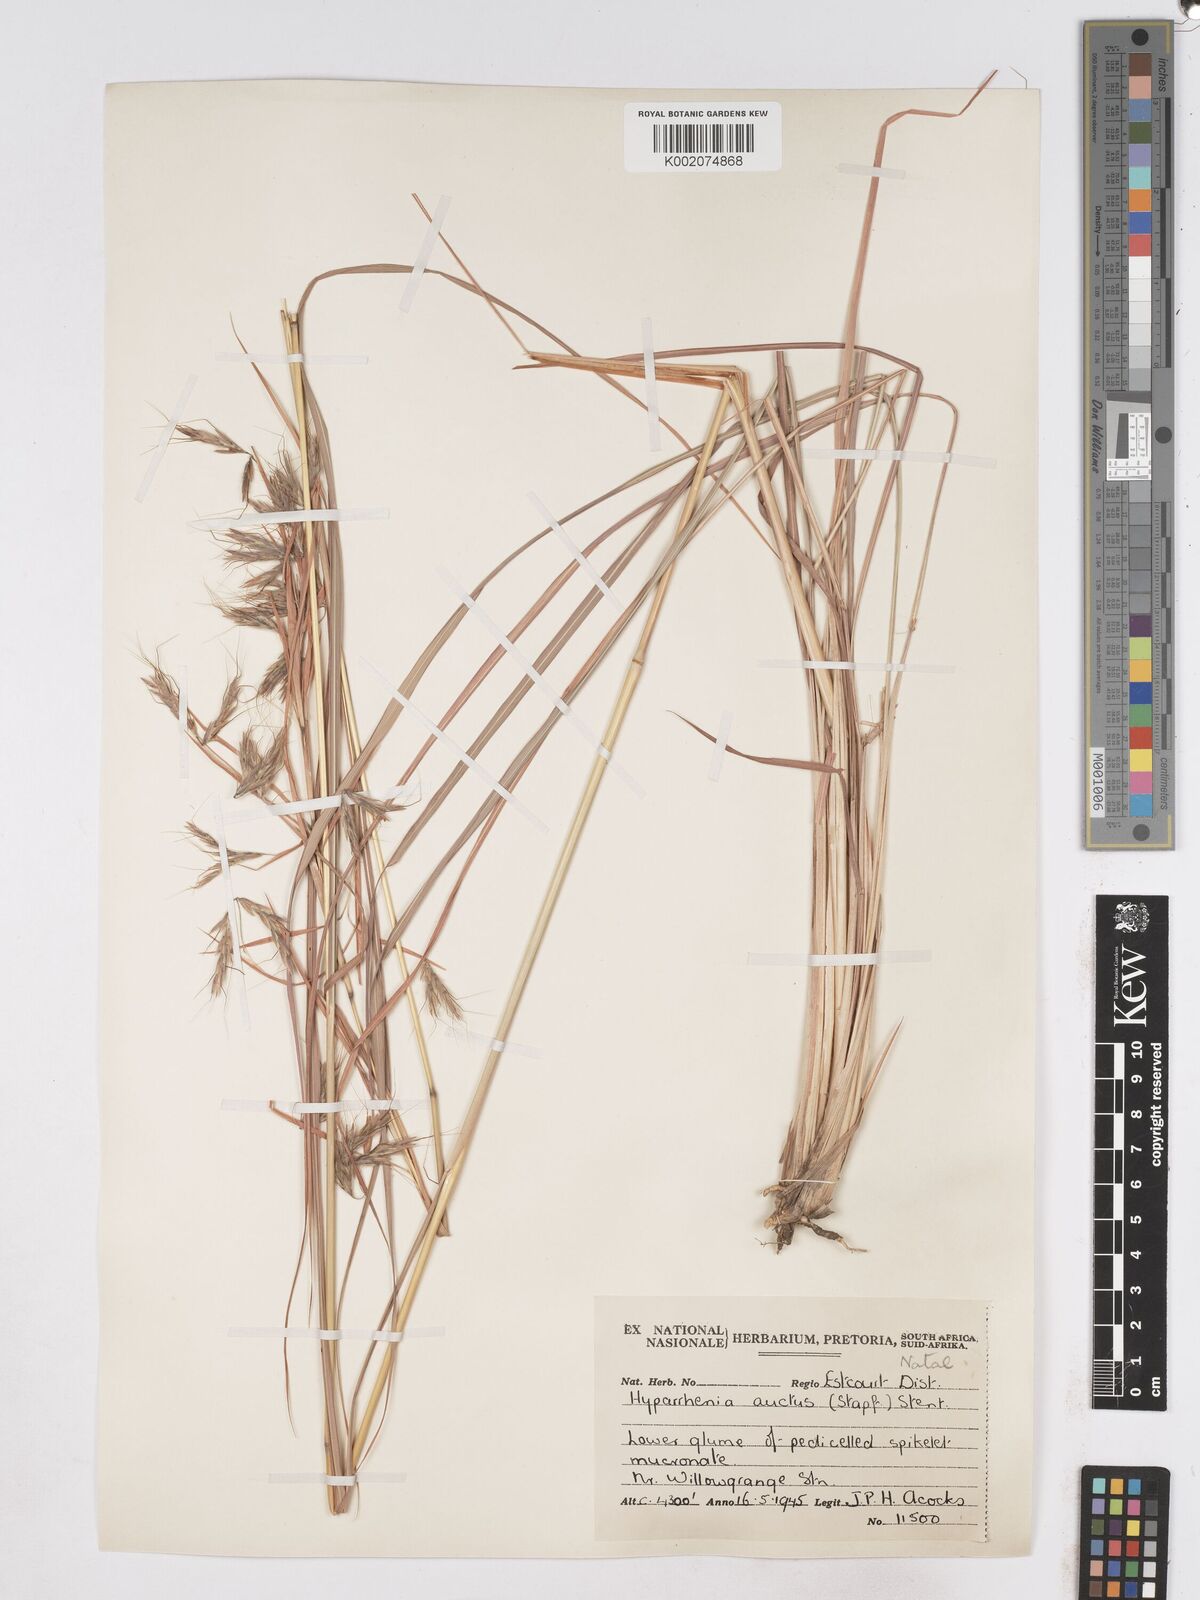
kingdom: Plantae
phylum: Tracheophyta
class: Liliopsida
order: Poales
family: Poaceae
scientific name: Poaceae
